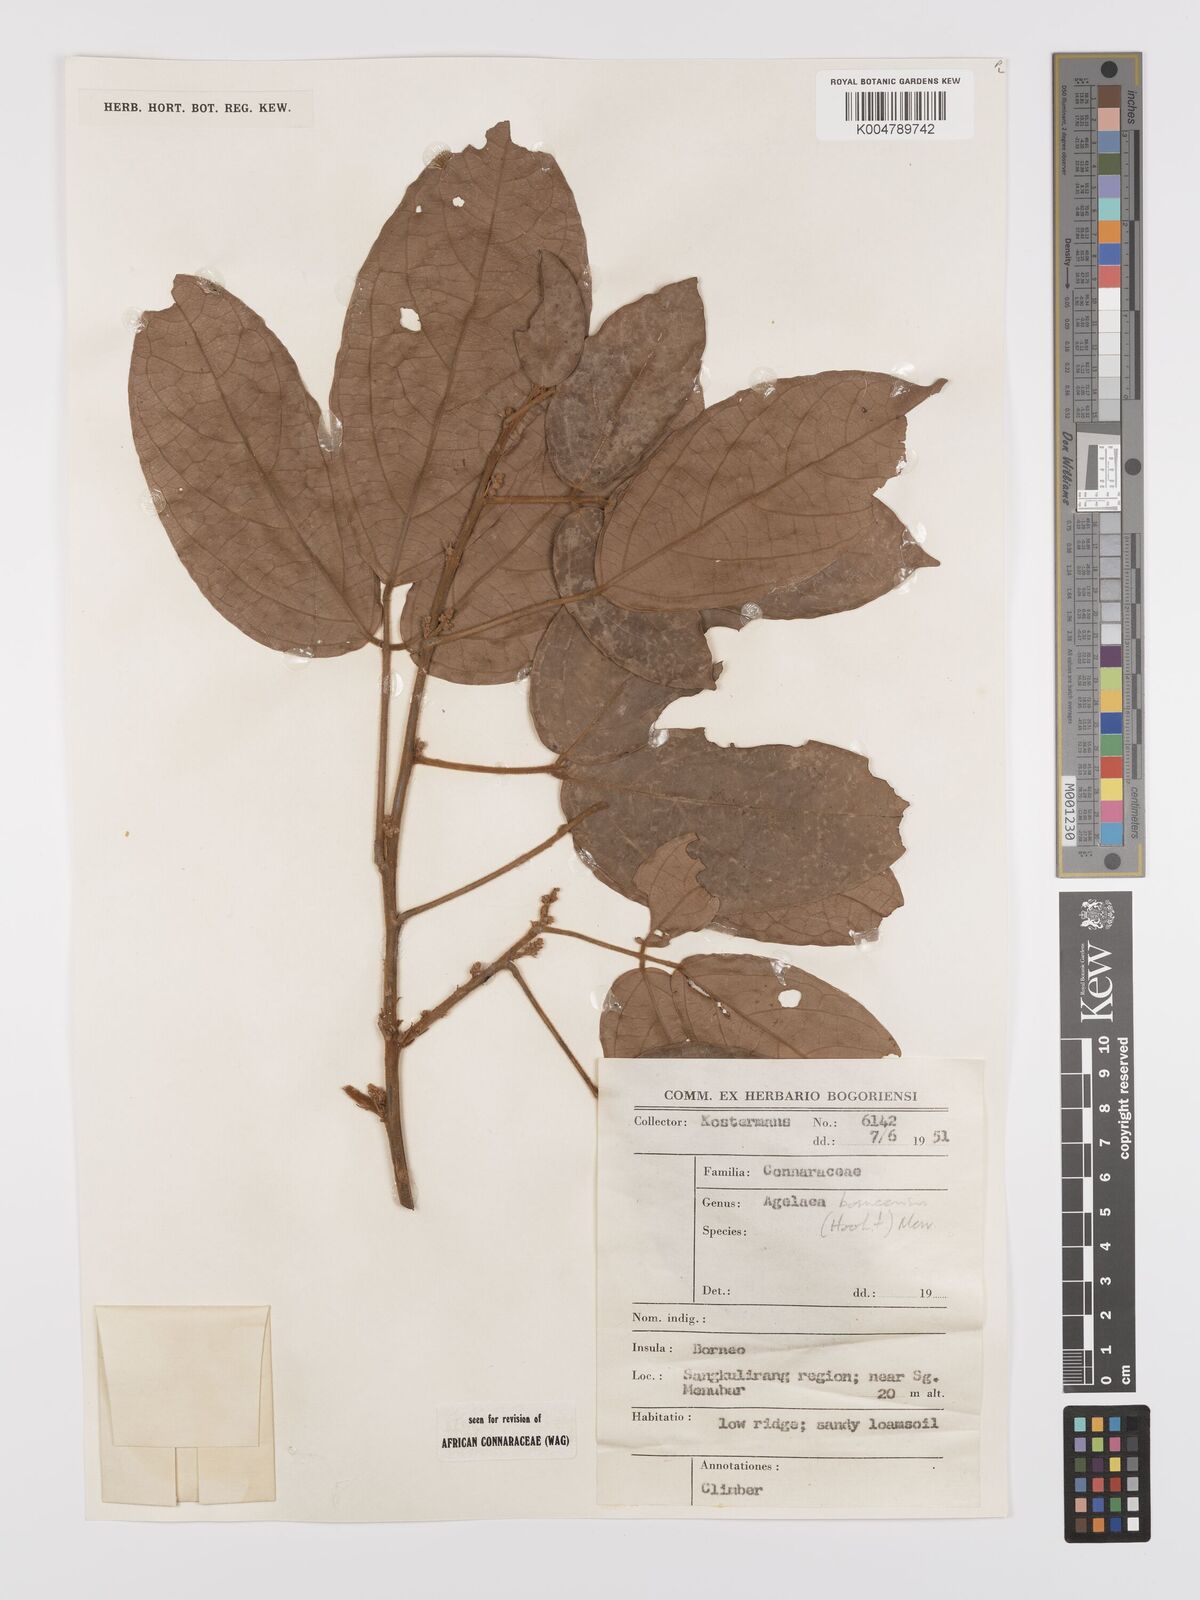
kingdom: Plantae
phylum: Tracheophyta
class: Magnoliopsida
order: Oxalidales
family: Connaraceae
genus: Agelaea
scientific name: Agelaea borneensis
